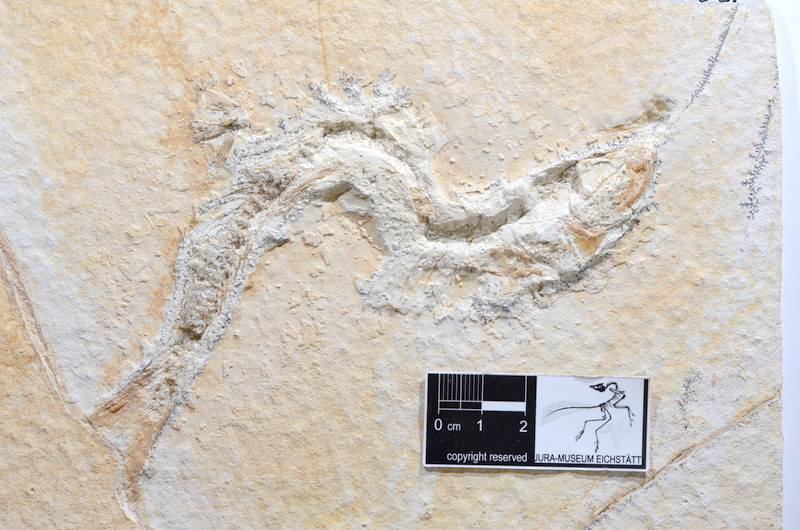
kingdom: Animalia
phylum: Chordata
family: Ascalaboidae
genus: Tharsis
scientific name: Tharsis dubius
